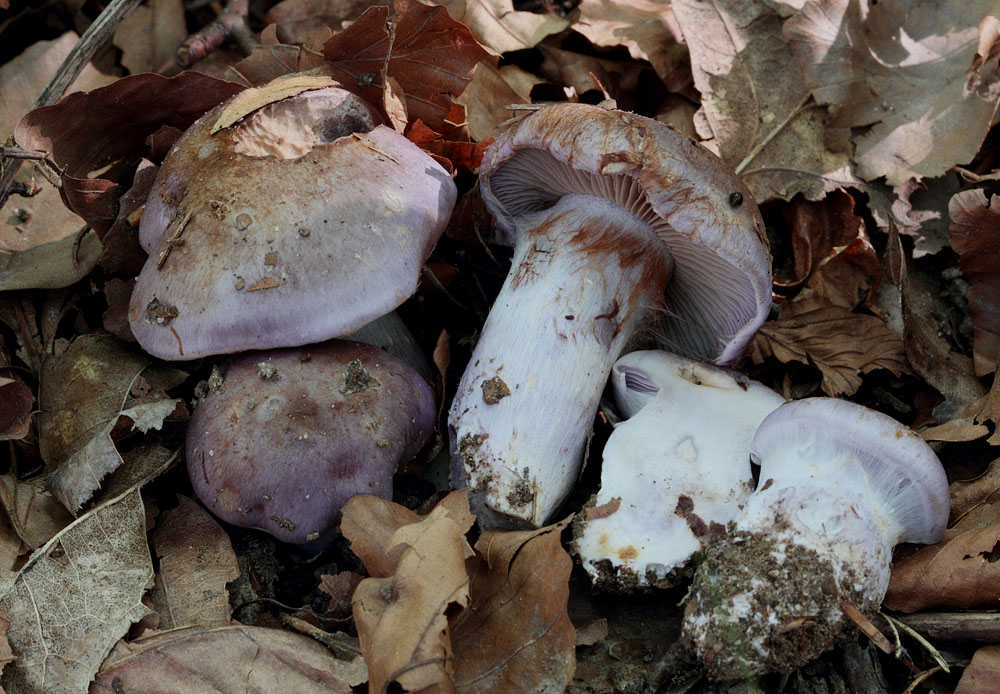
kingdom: Fungi
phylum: Basidiomycota
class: Agaricomycetes
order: Agaricales
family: Cortinariaceae
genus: Cortinarius
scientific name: Cortinarius largus
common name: violetrandet slørhat
